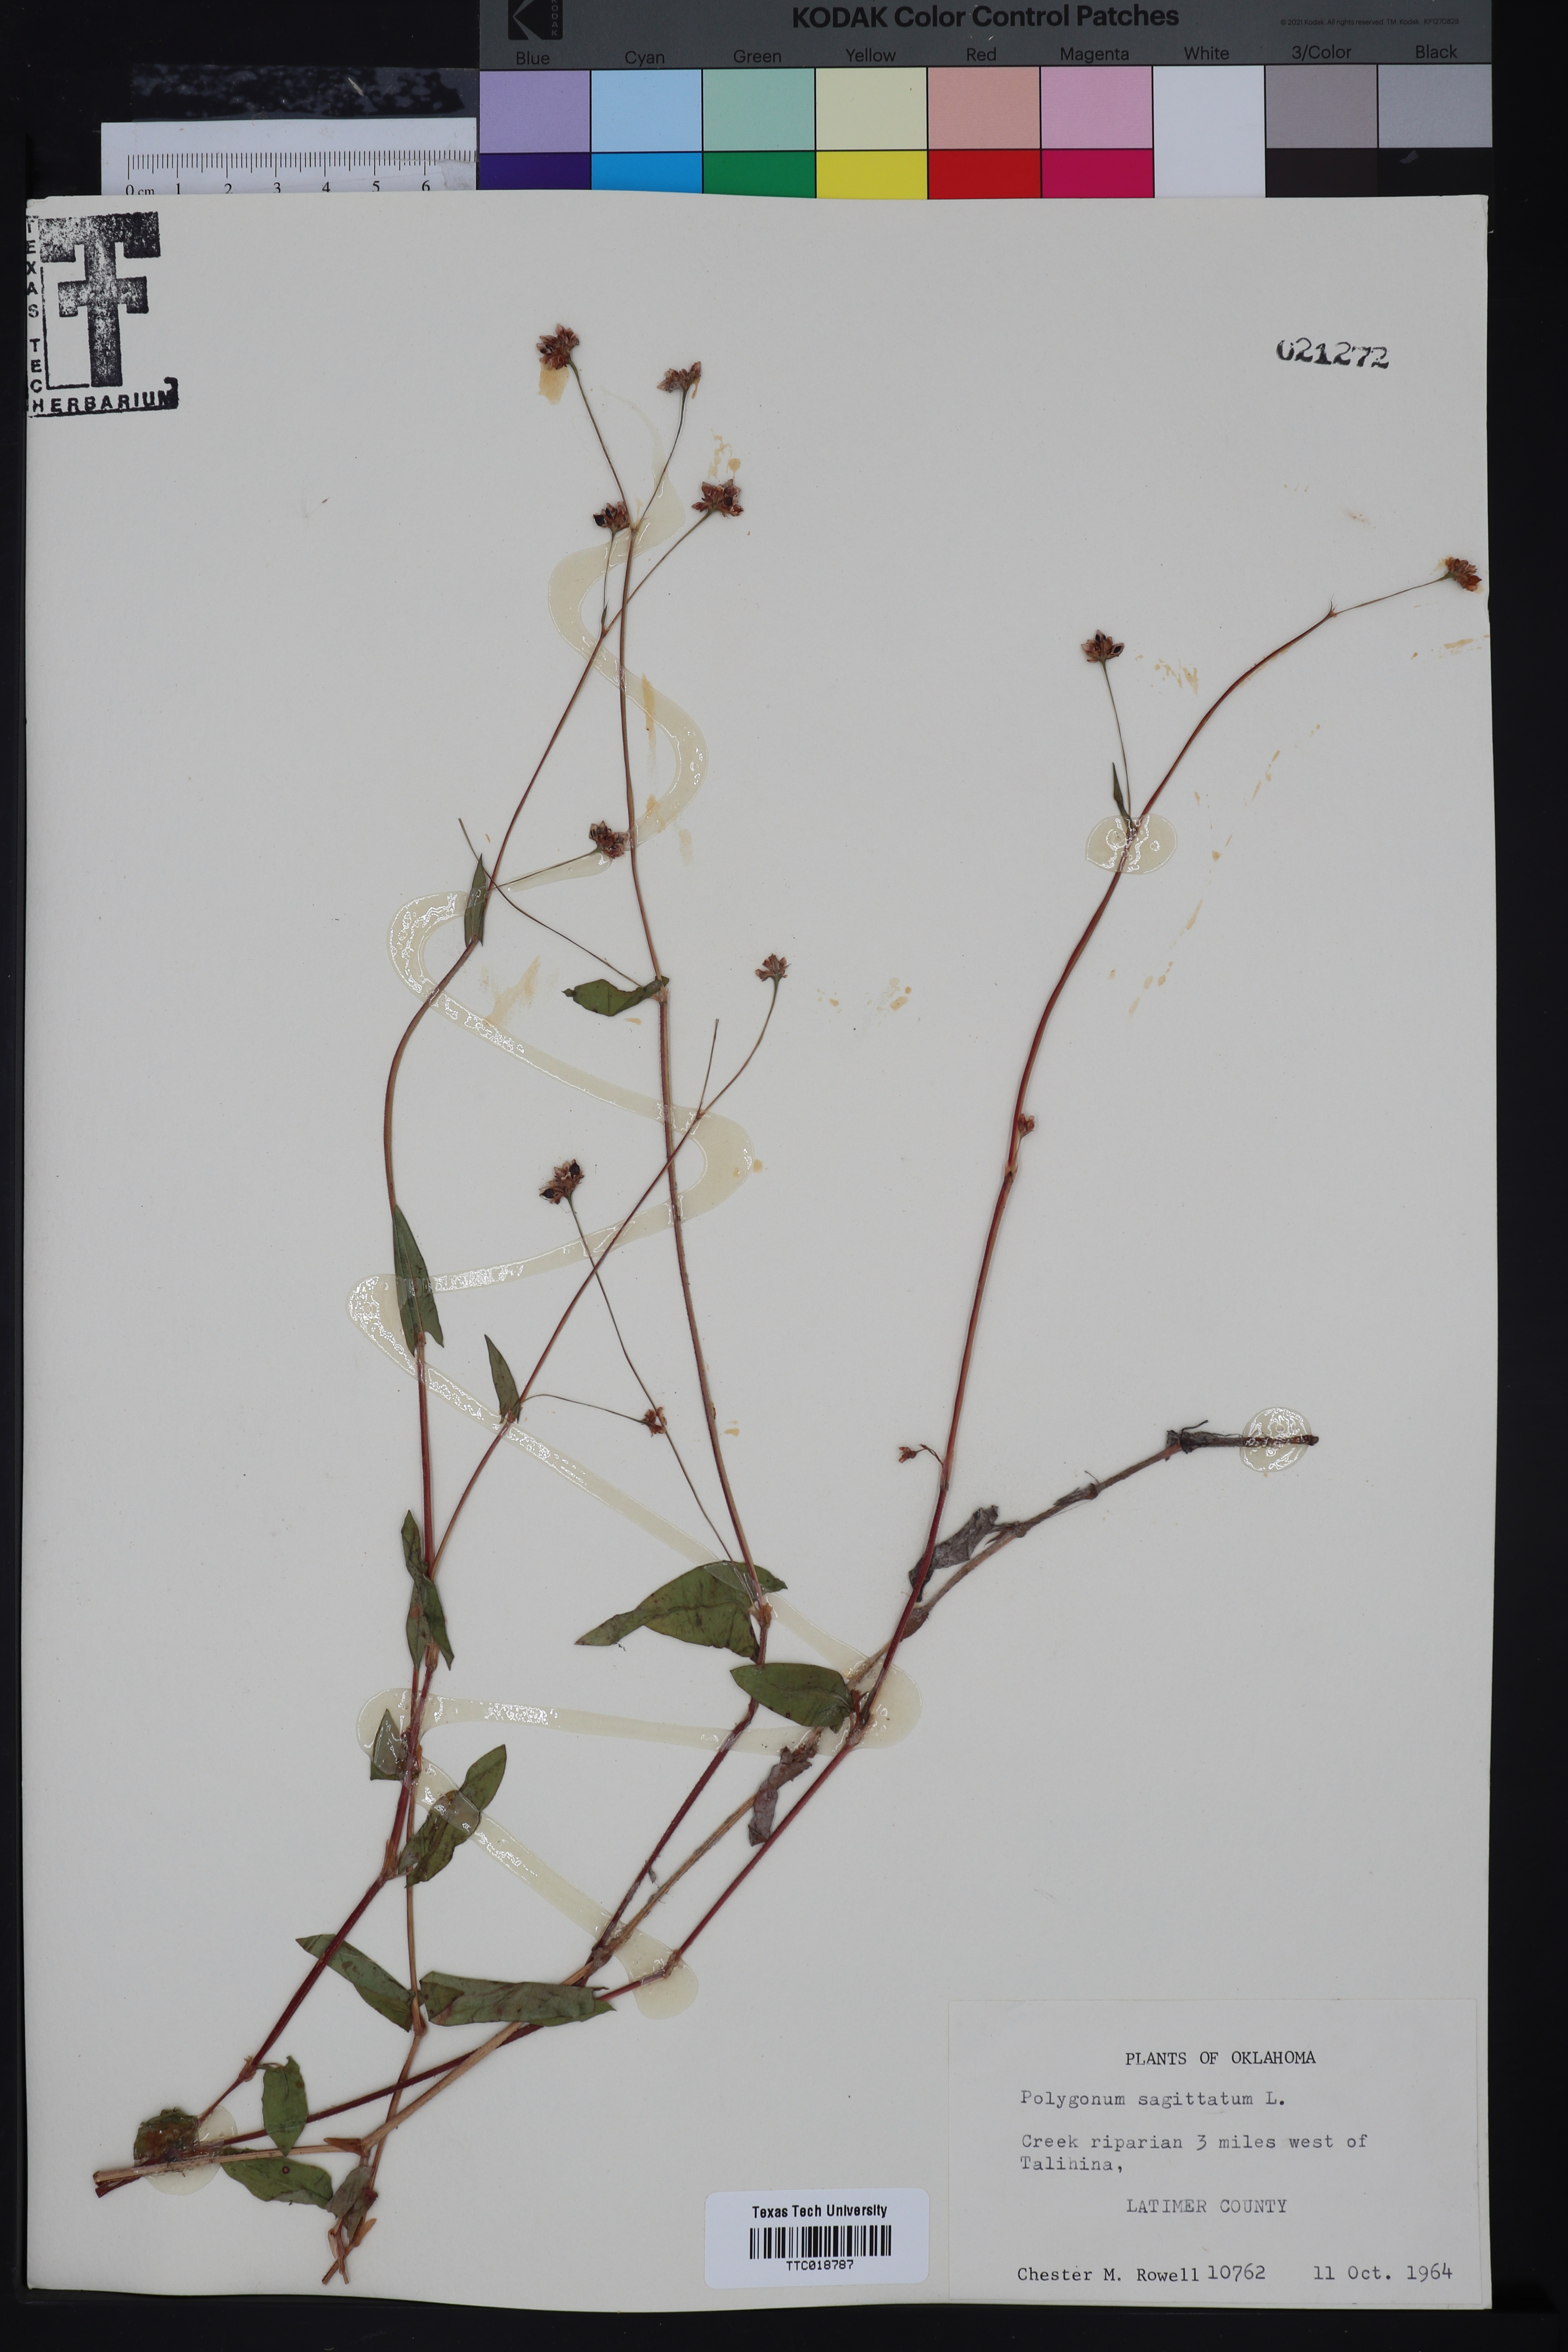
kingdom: Plantae
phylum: Tracheophyta
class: Magnoliopsida
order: Caryophyllales
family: Polygonaceae
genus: Persicaria
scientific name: Persicaria sagittata
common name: American tearthumb
